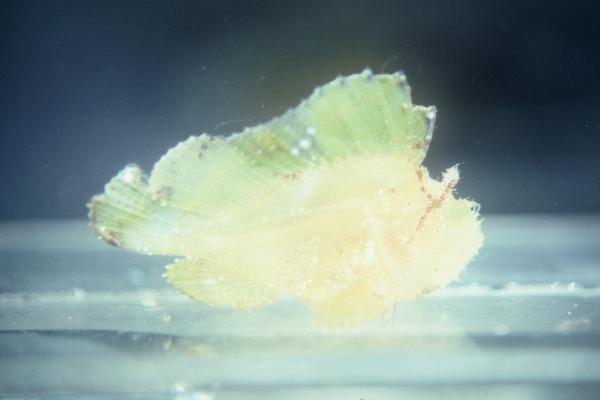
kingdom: Animalia
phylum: Chordata
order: Scorpaeniformes
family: Scorpaenidae
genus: Taenianotus
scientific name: Taenianotus triacanthus
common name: Leaf scorpionfish
